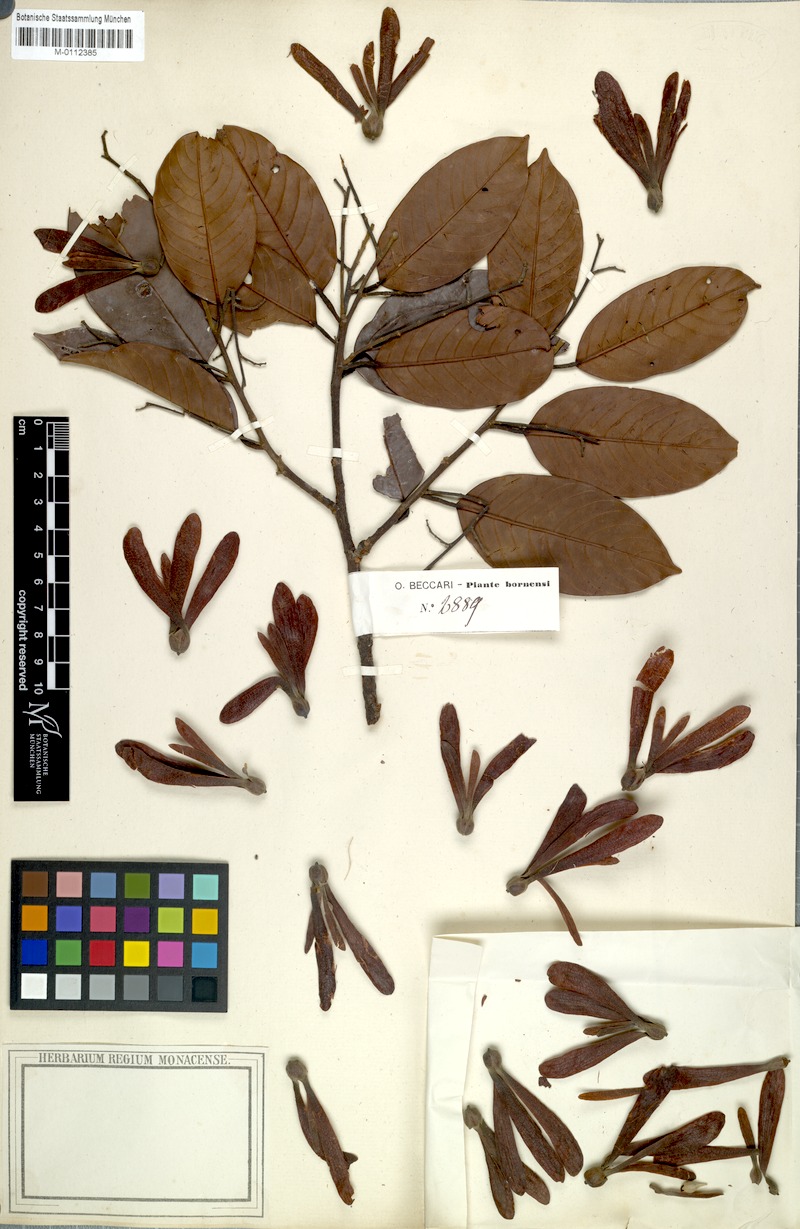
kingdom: Plantae
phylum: Tracheophyta
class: Magnoliopsida
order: Malvales
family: Dipterocarpaceae
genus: Shorea
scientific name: Shorea
